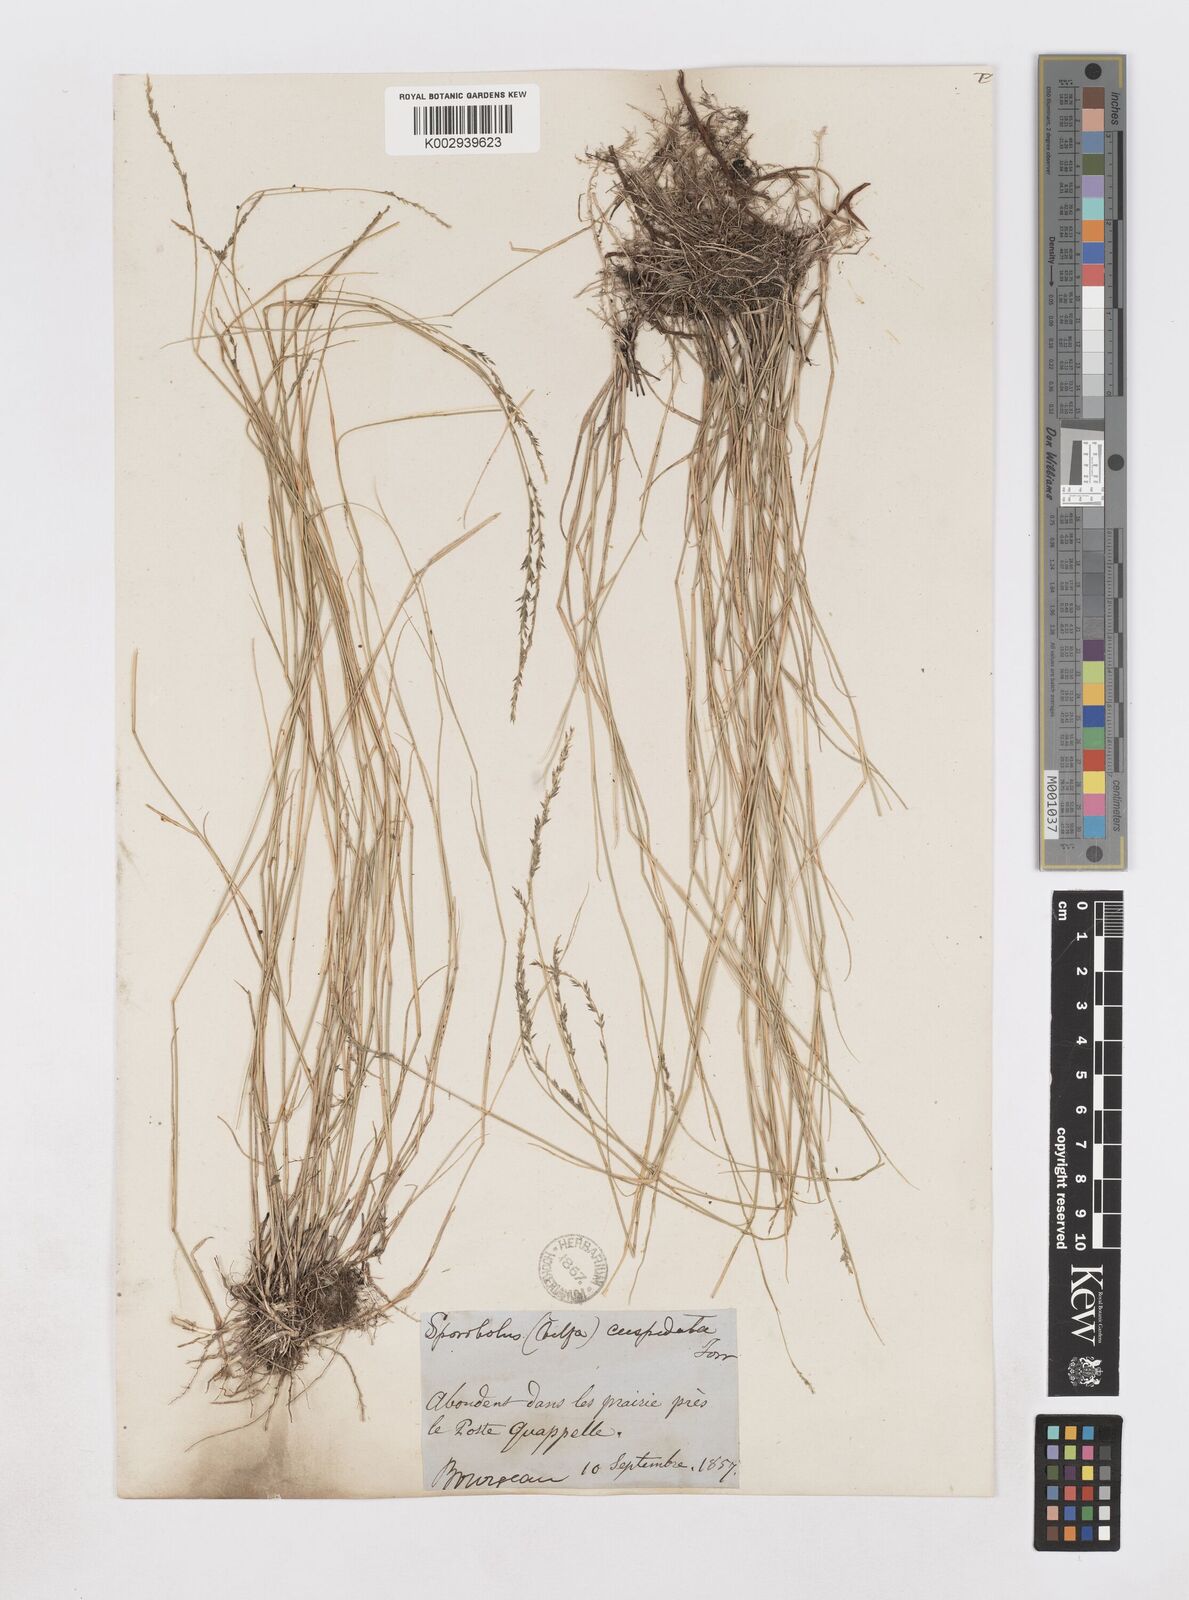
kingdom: Plantae
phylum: Tracheophyta
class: Liliopsida
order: Poales
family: Poaceae
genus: Muhlenbergia
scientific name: Muhlenbergia cuspidata
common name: Plains muhly
